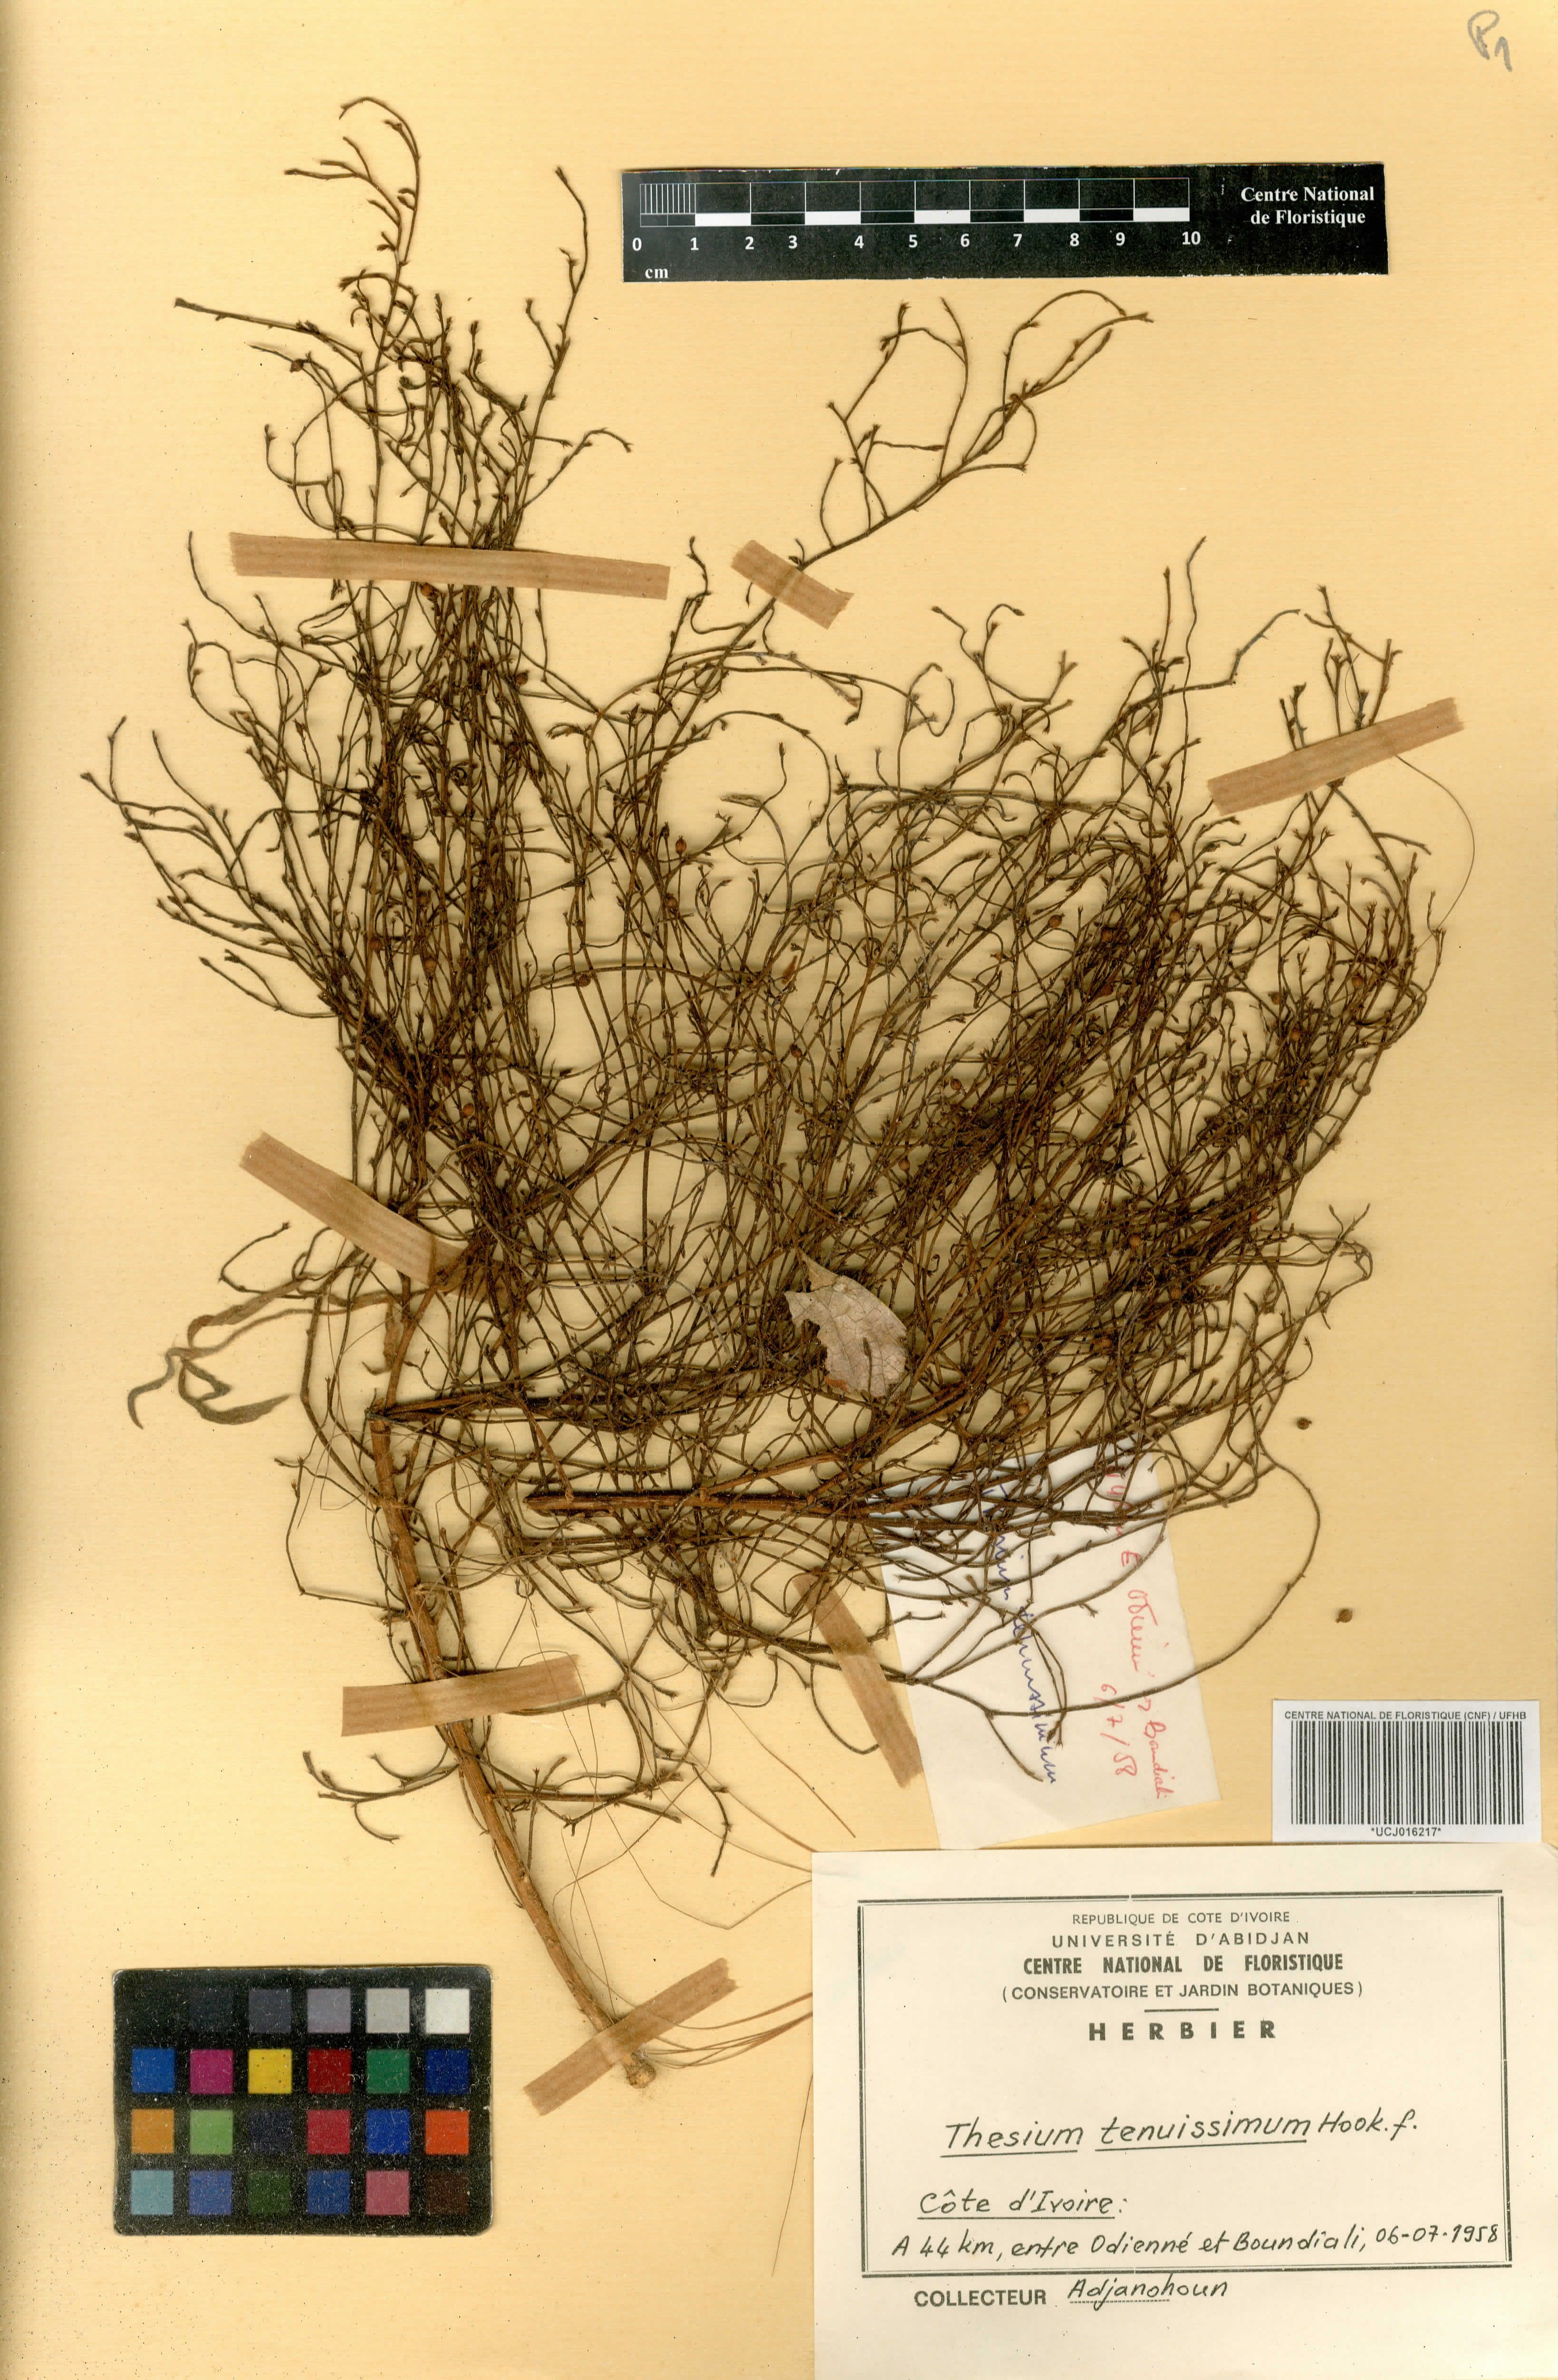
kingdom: Plantae
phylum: Tracheophyta
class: Magnoliopsida
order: Santalales
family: Thesiaceae
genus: Thesium
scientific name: Thesium tenuissimum
